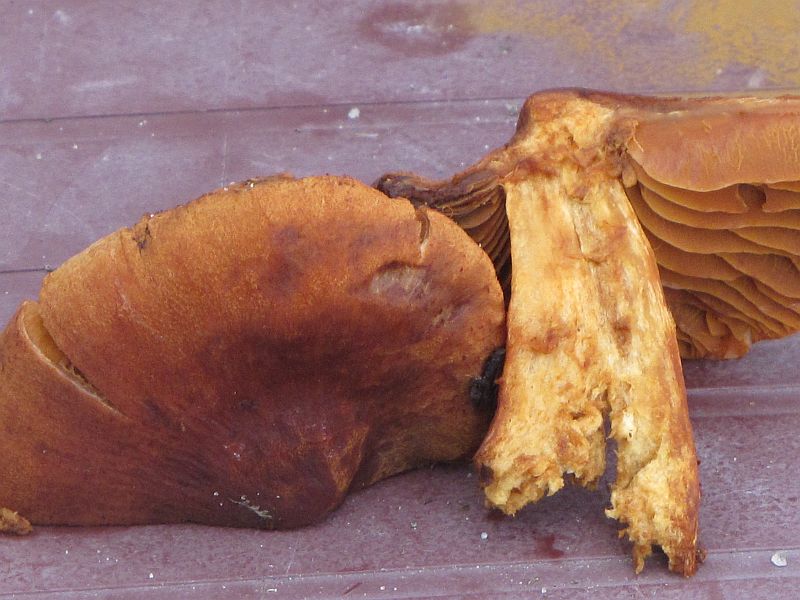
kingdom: Fungi
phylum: Basidiomycota
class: Agaricomycetes
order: Agaricales
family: Cortinariaceae
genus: Aureonarius
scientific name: Aureonarius limonius
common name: orangegul slørhat
